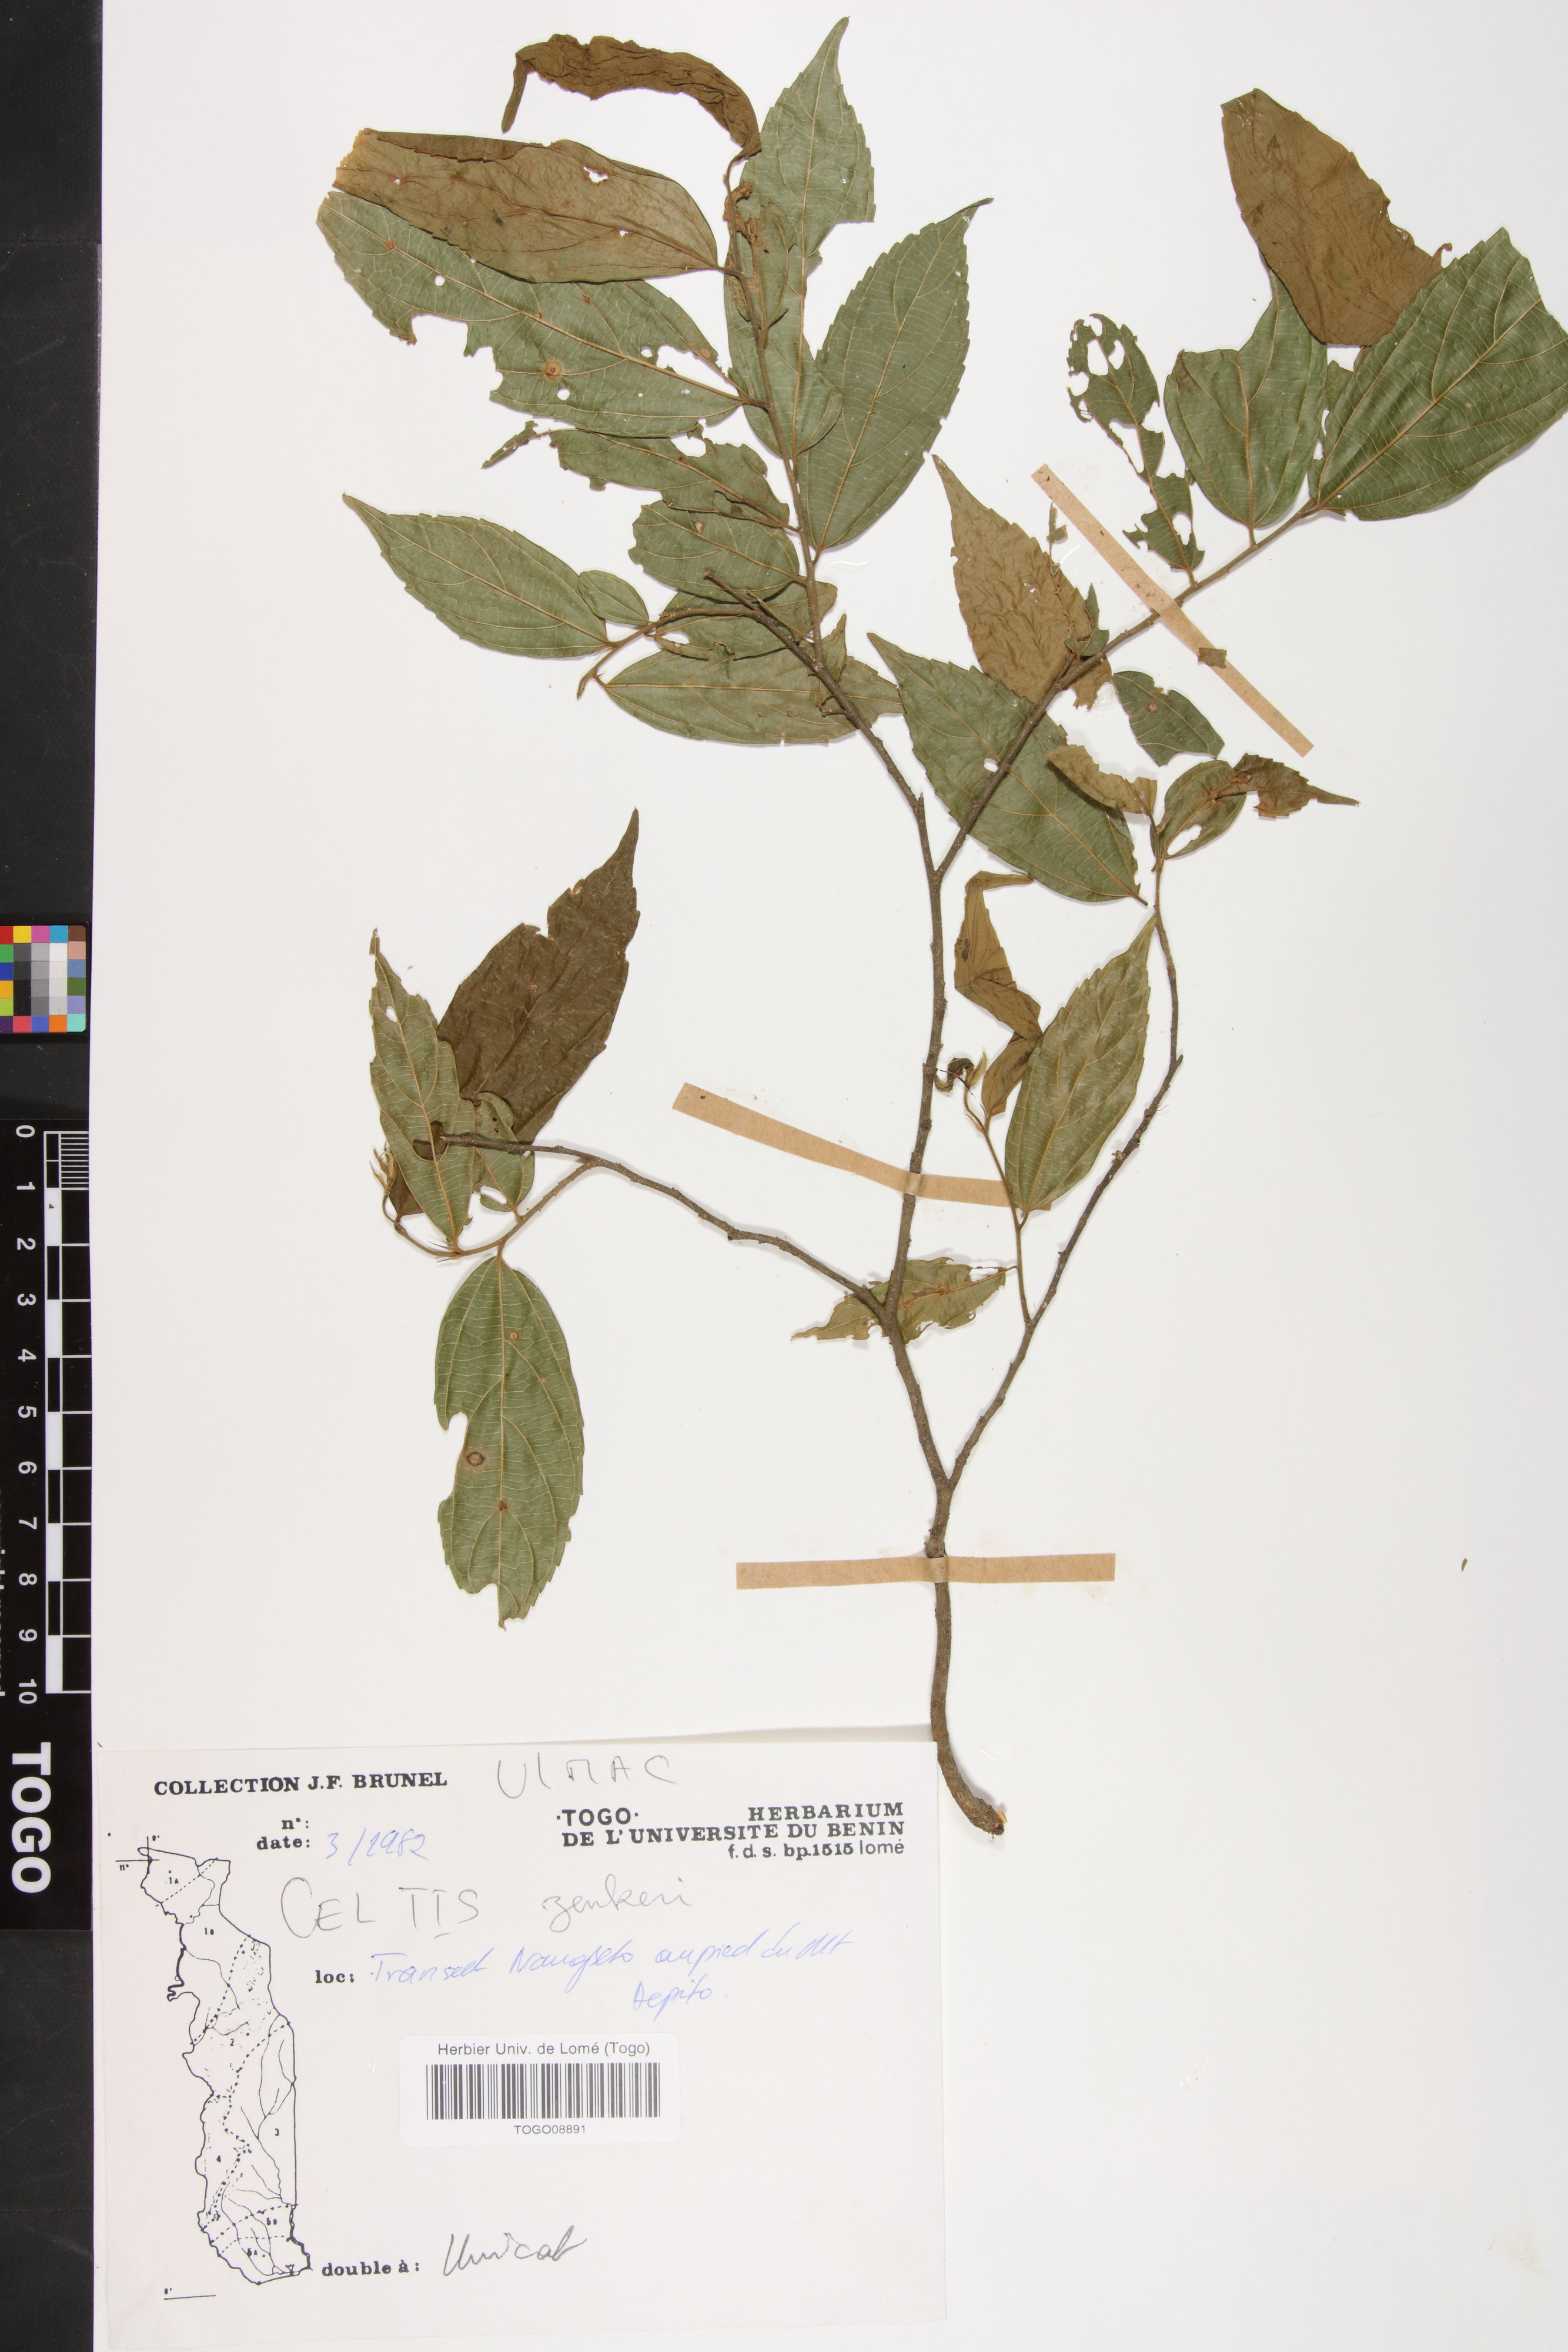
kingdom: Plantae
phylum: Tracheophyta
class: Magnoliopsida
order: Rosales
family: Cannabaceae
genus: Celtis
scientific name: Celtis zenkeri
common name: African celtis
